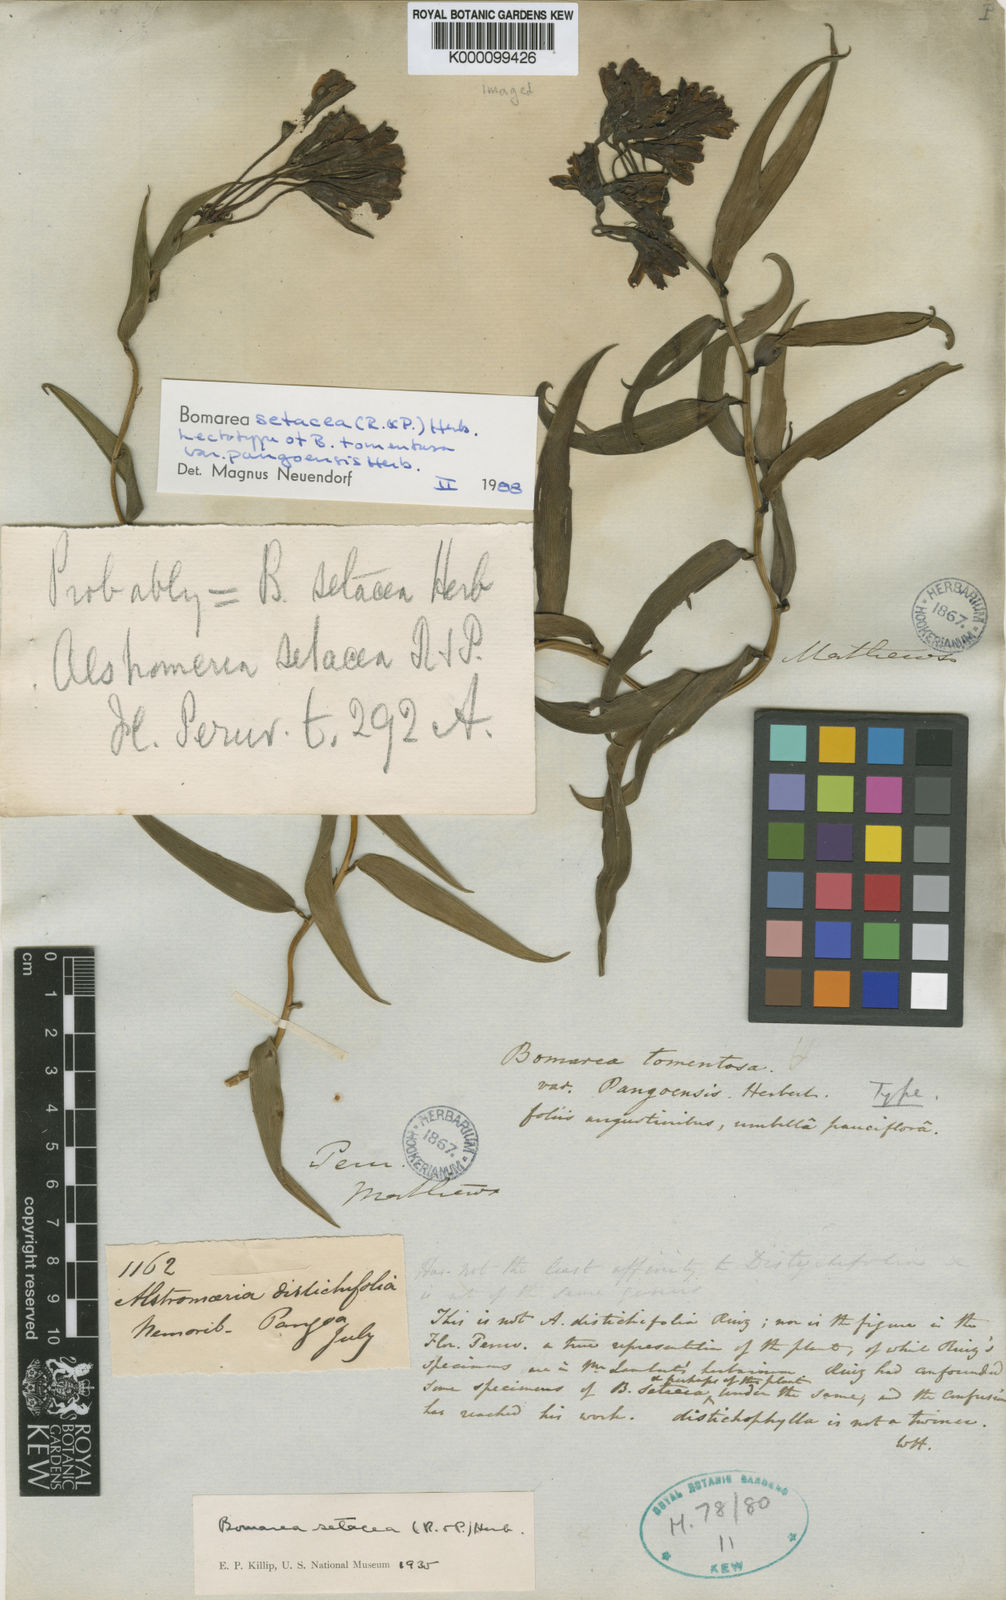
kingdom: Plantae
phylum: Tracheophyta
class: Liliopsida
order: Liliales
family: Alstroemeriaceae
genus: Bomarea
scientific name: Bomarea setacea
